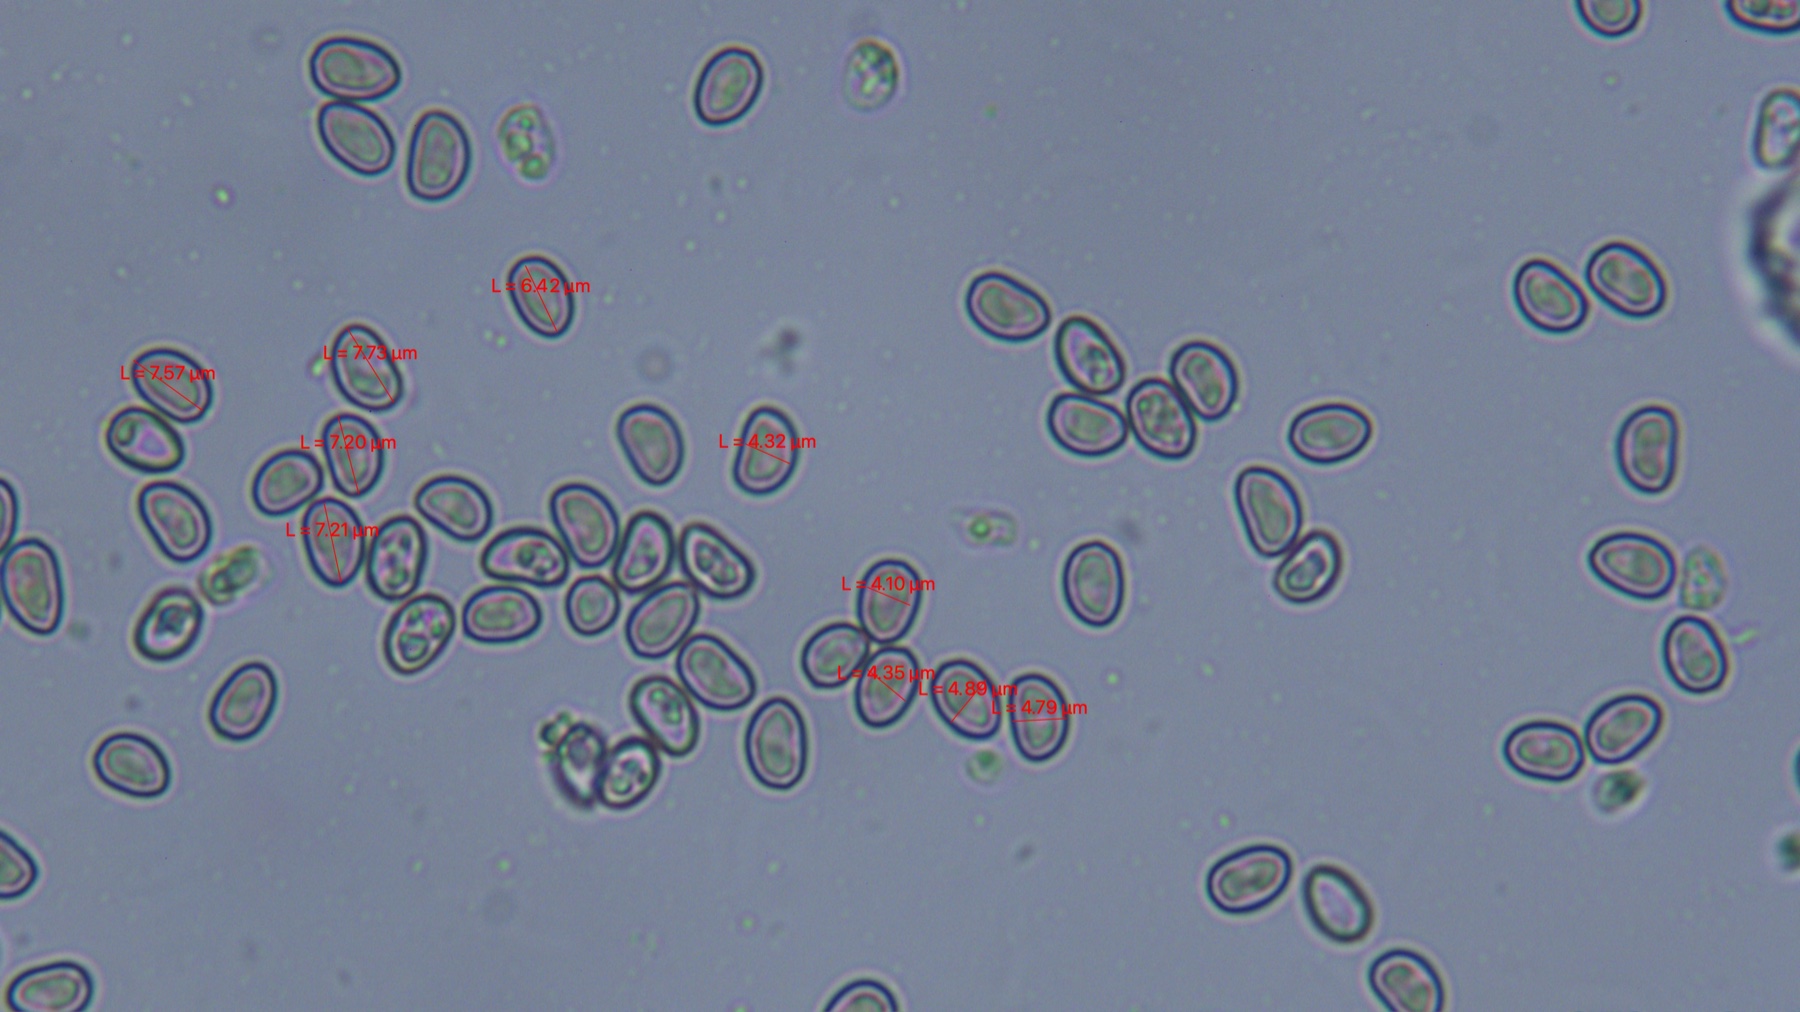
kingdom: Fungi
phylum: Basidiomycota
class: Agaricomycetes
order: Agaricales
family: Crepidotaceae
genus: Simocybe
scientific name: Simocybe centunculus
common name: enlig skyggehat
